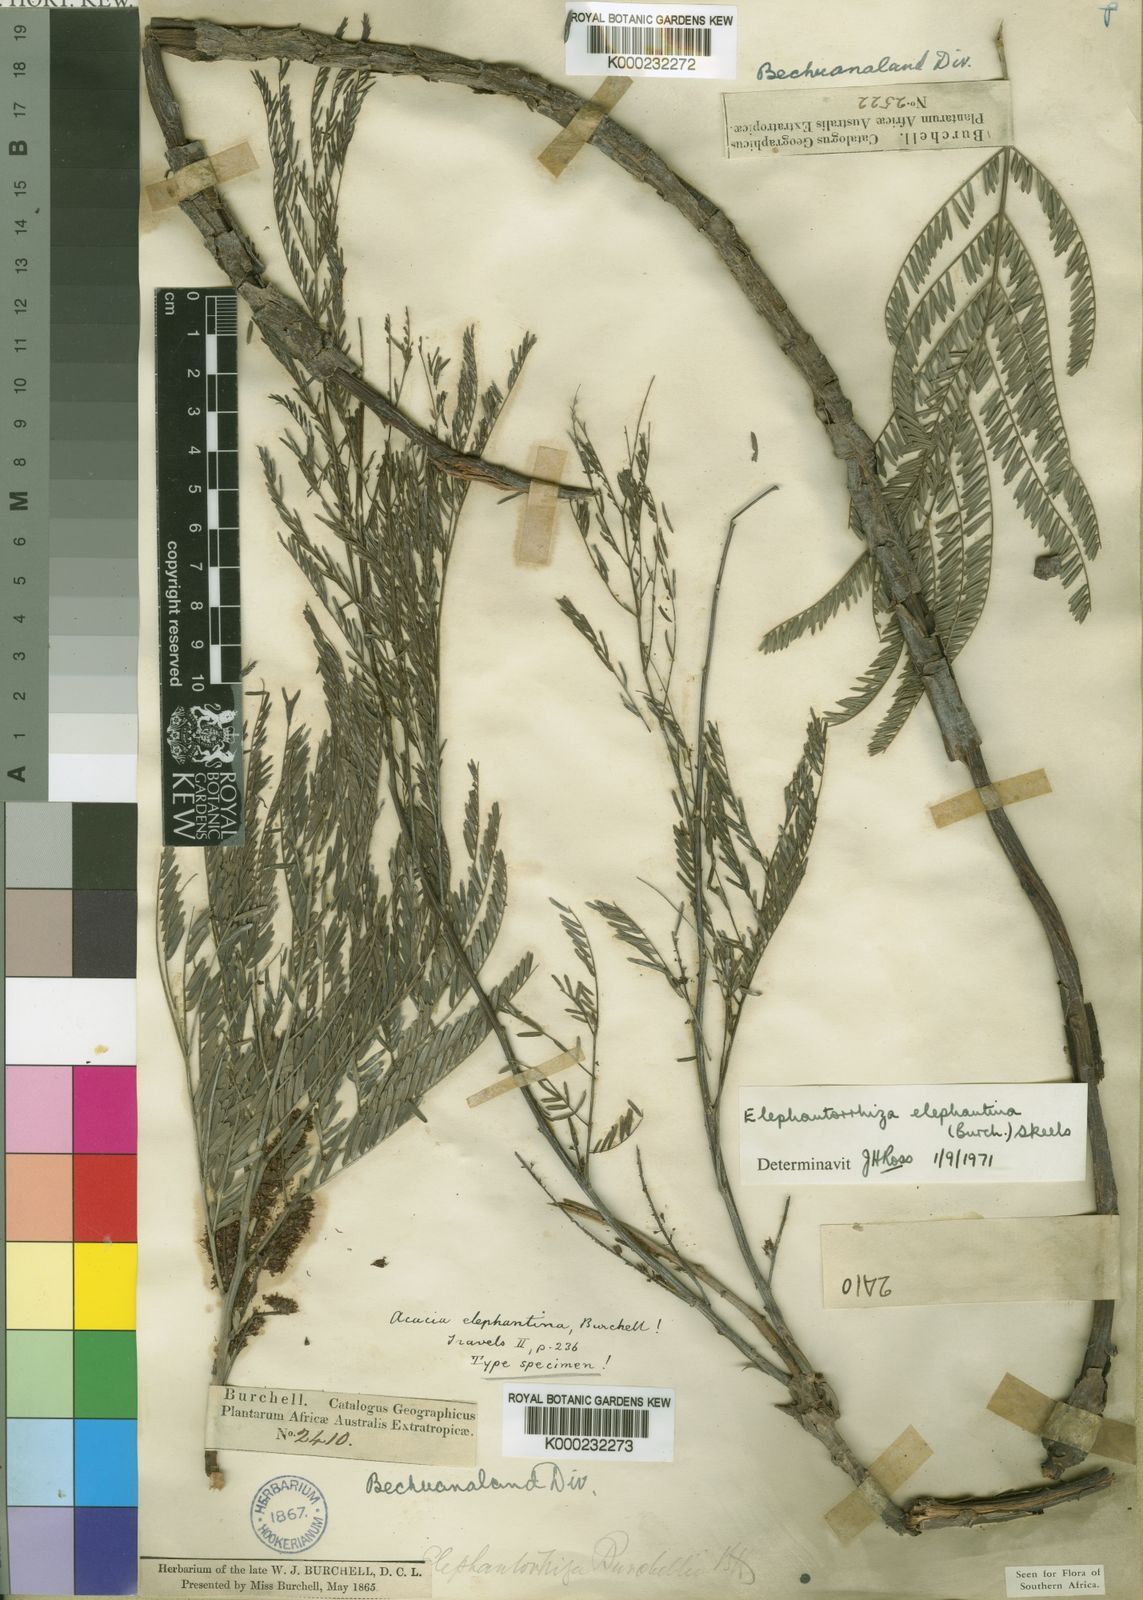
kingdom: Plantae
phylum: Tracheophyta
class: Magnoliopsida
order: Fabales
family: Fabaceae
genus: Elephantorrhiza
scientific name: Elephantorrhiza elephantina
